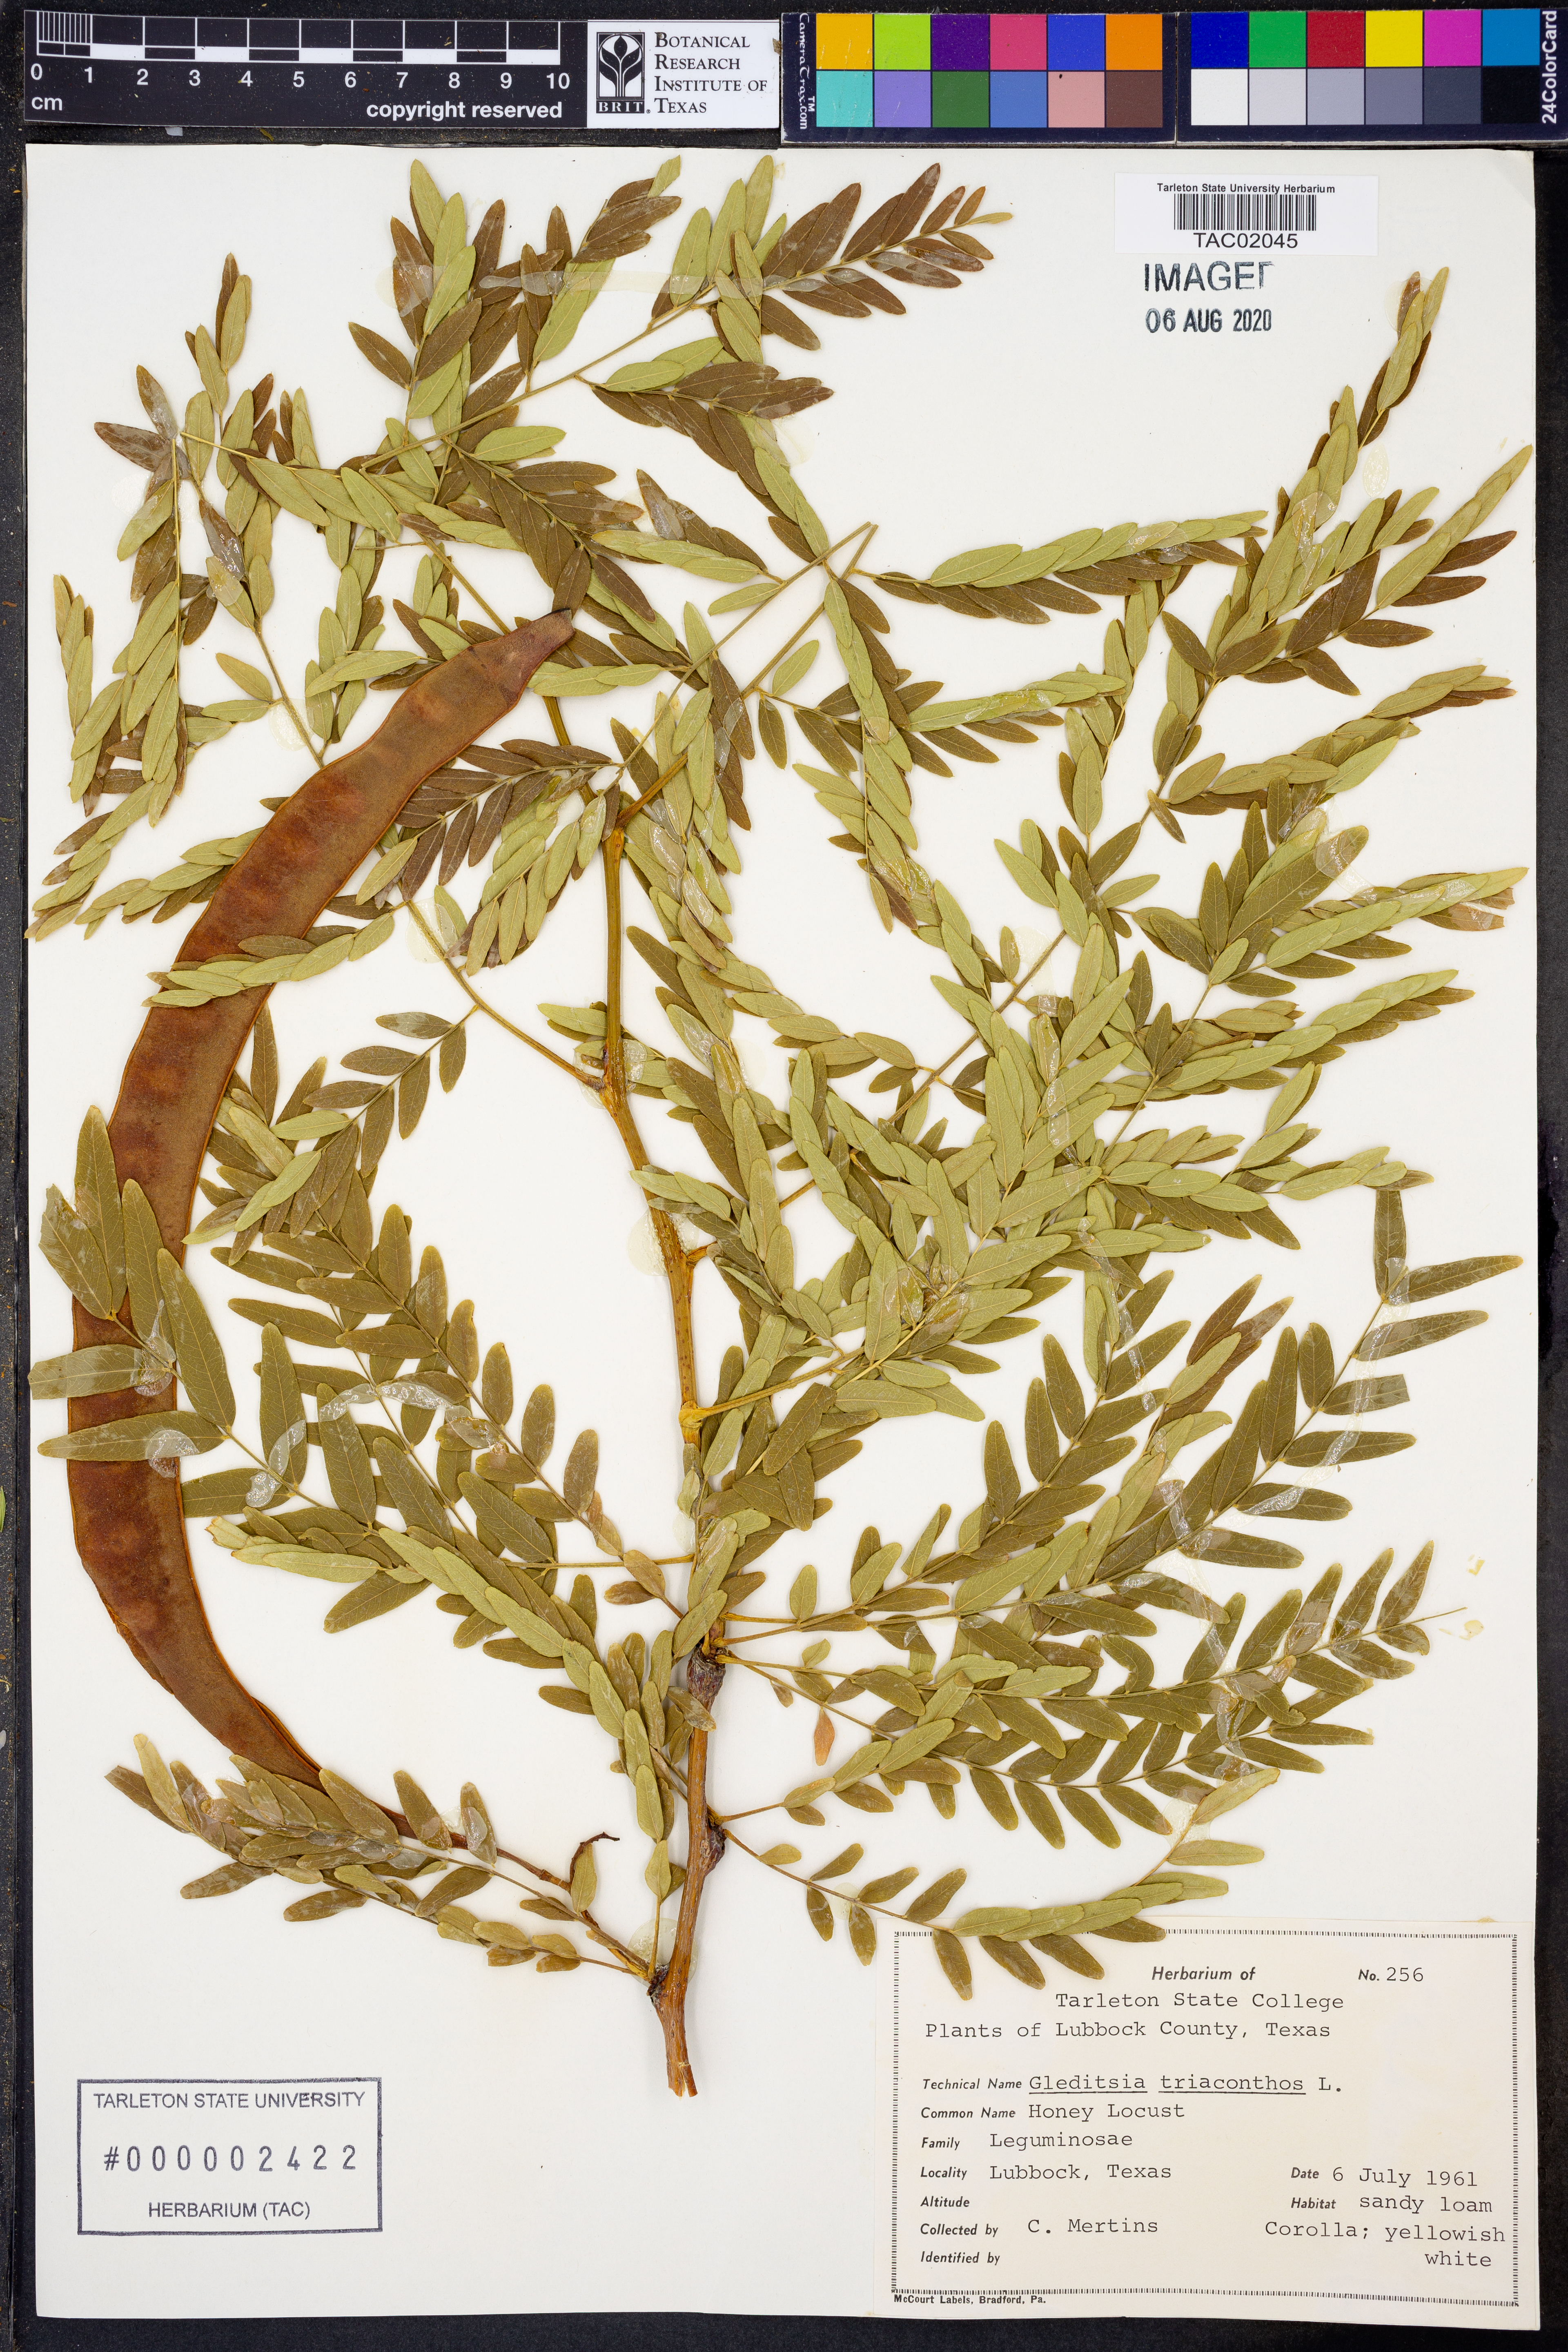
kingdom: Plantae
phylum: Tracheophyta
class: Magnoliopsida
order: Fabales
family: Fabaceae
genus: Gleditsia
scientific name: Gleditsia triacanthos
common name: Common honeylocust
